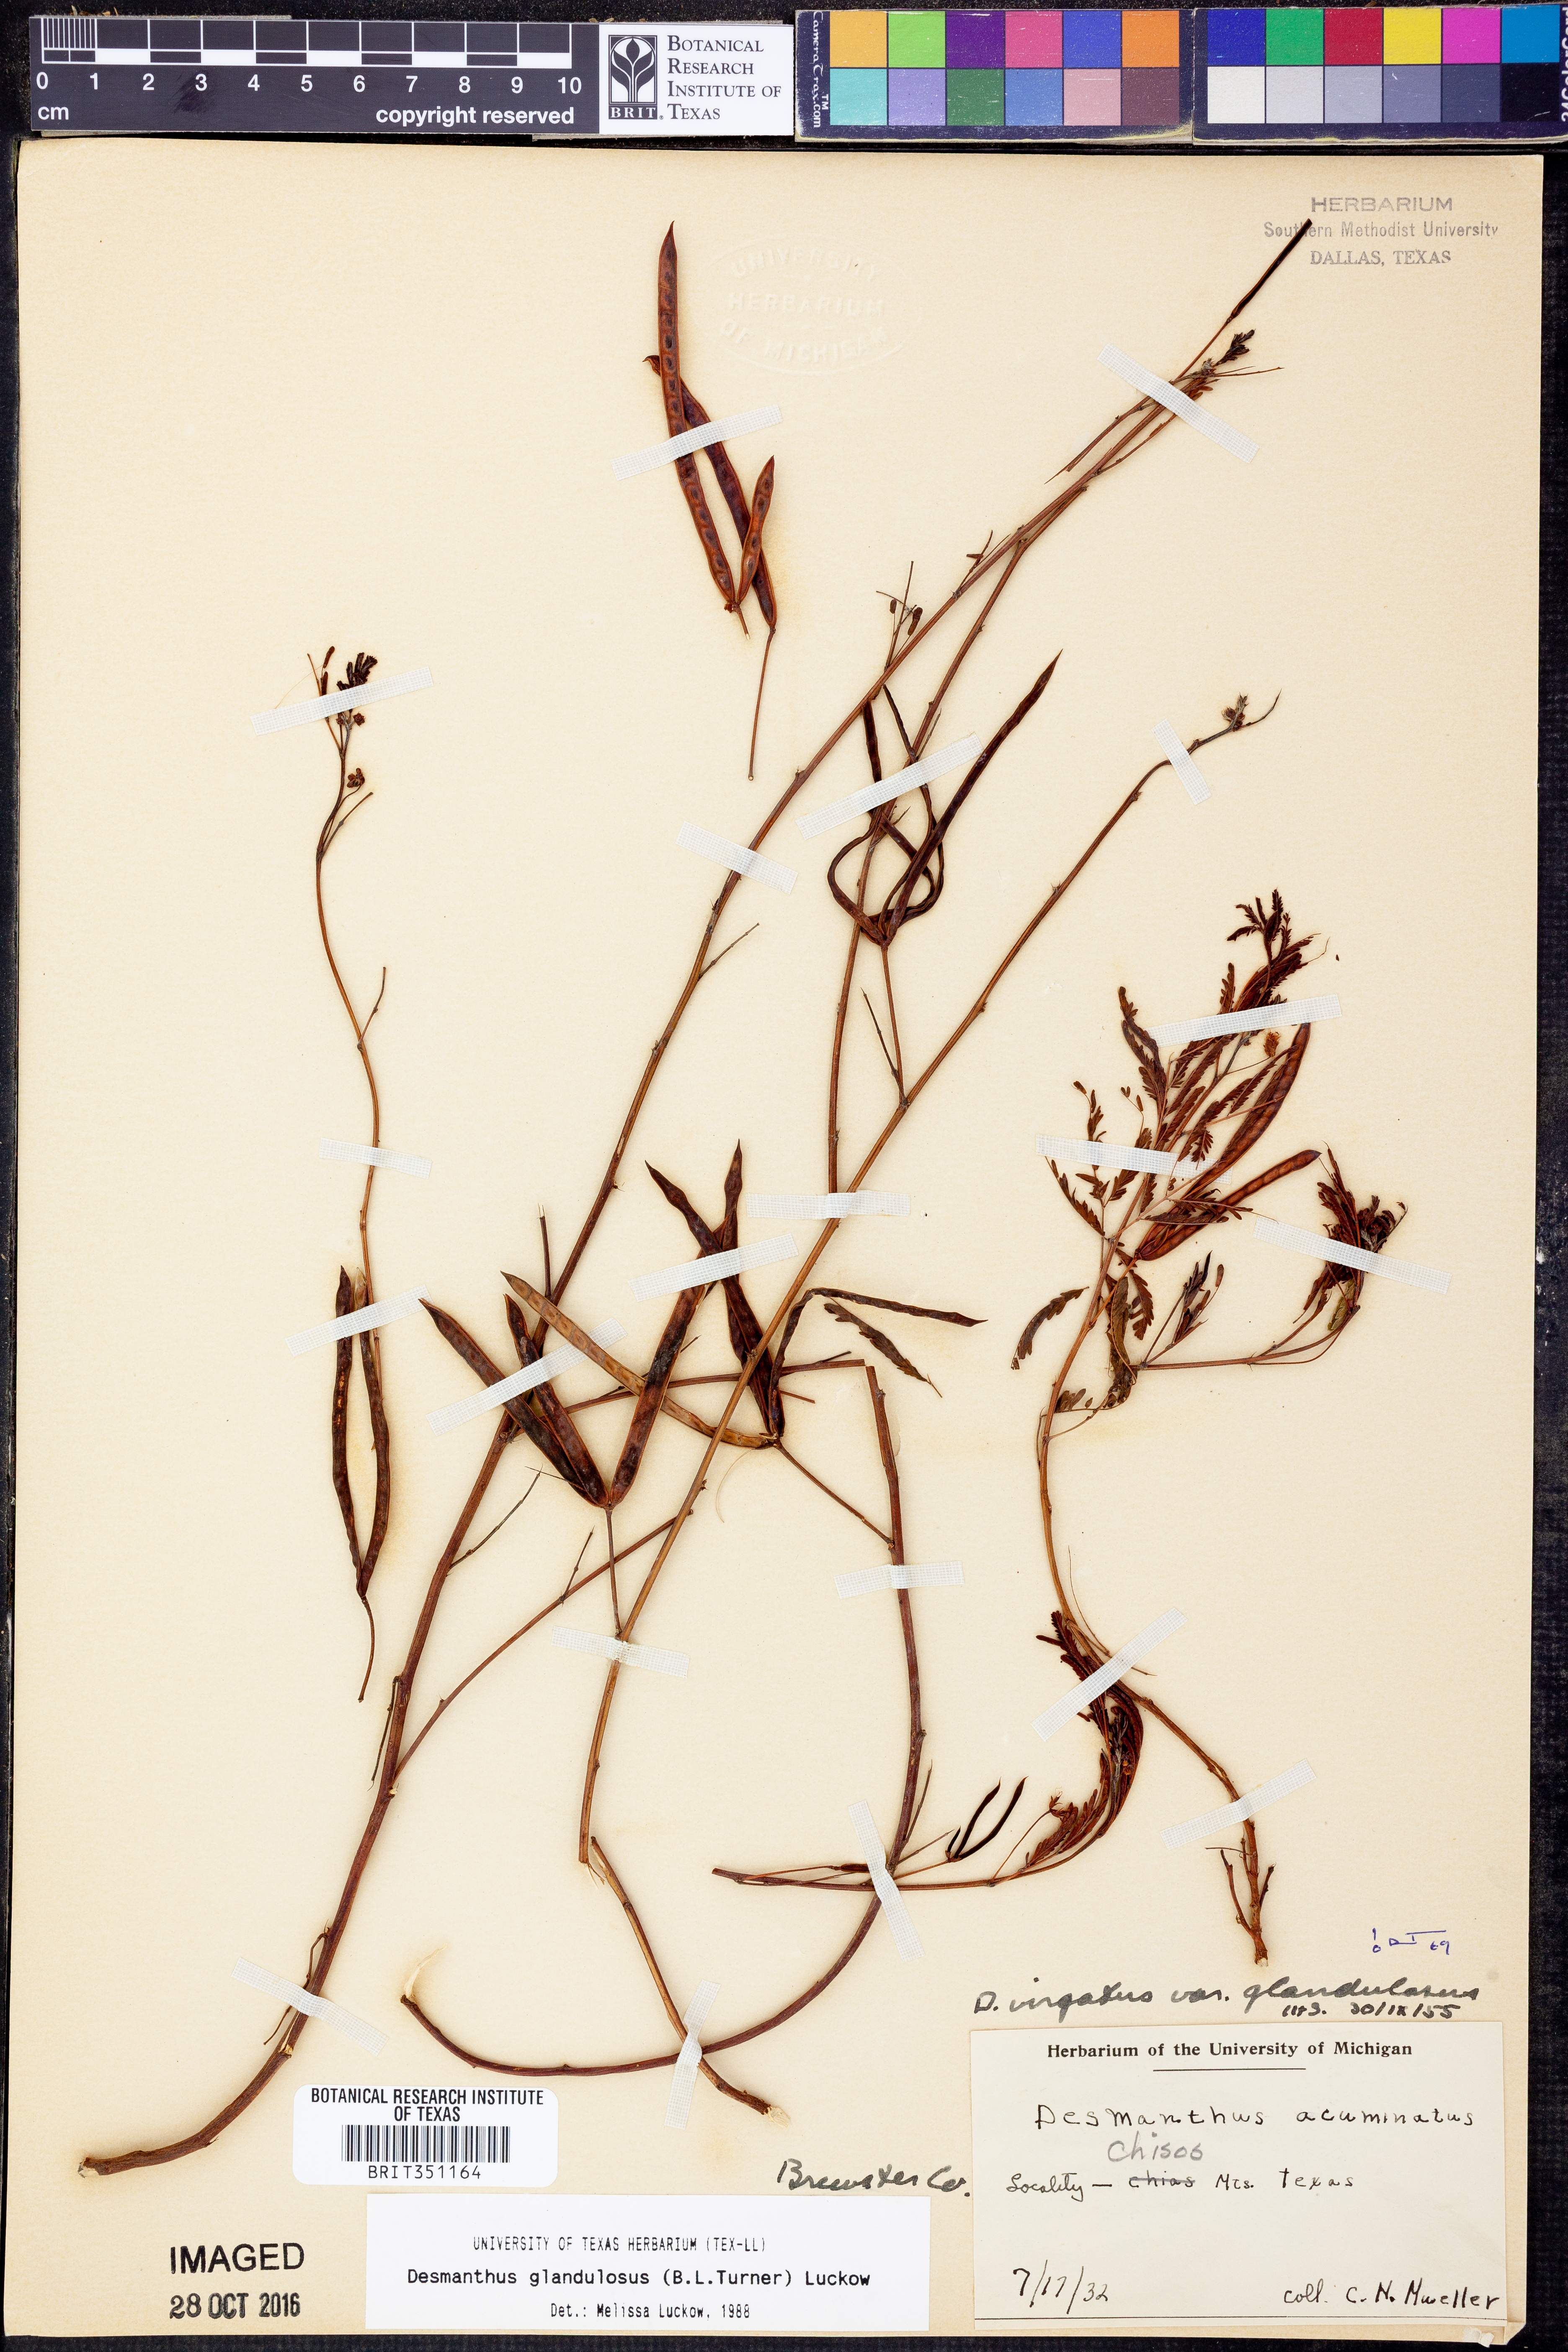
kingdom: Plantae
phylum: Tracheophyta
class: Magnoliopsida
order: Fabales
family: Fabaceae
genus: Desmanthus
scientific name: Desmanthus glandulosus
